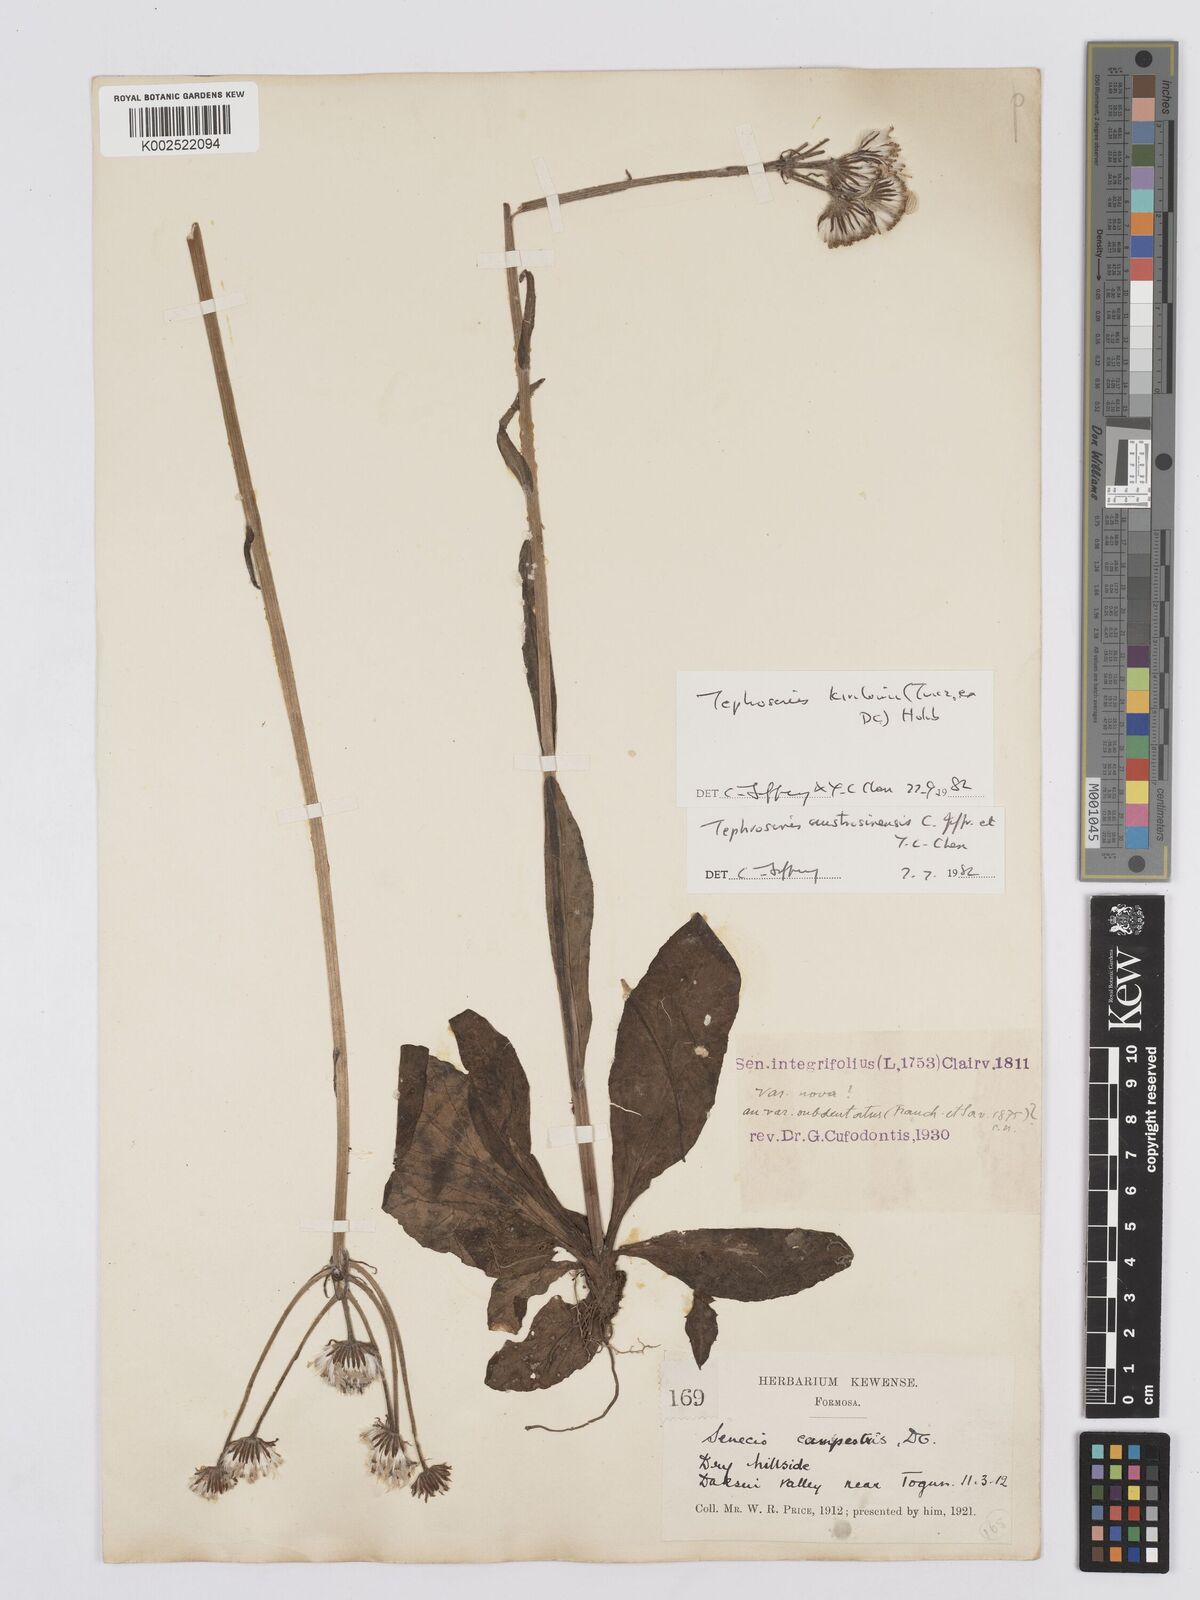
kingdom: Plantae
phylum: Tracheophyta
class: Magnoliopsida
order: Asterales
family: Asteraceae
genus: Tephroseris
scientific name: Tephroseris kirilowii
